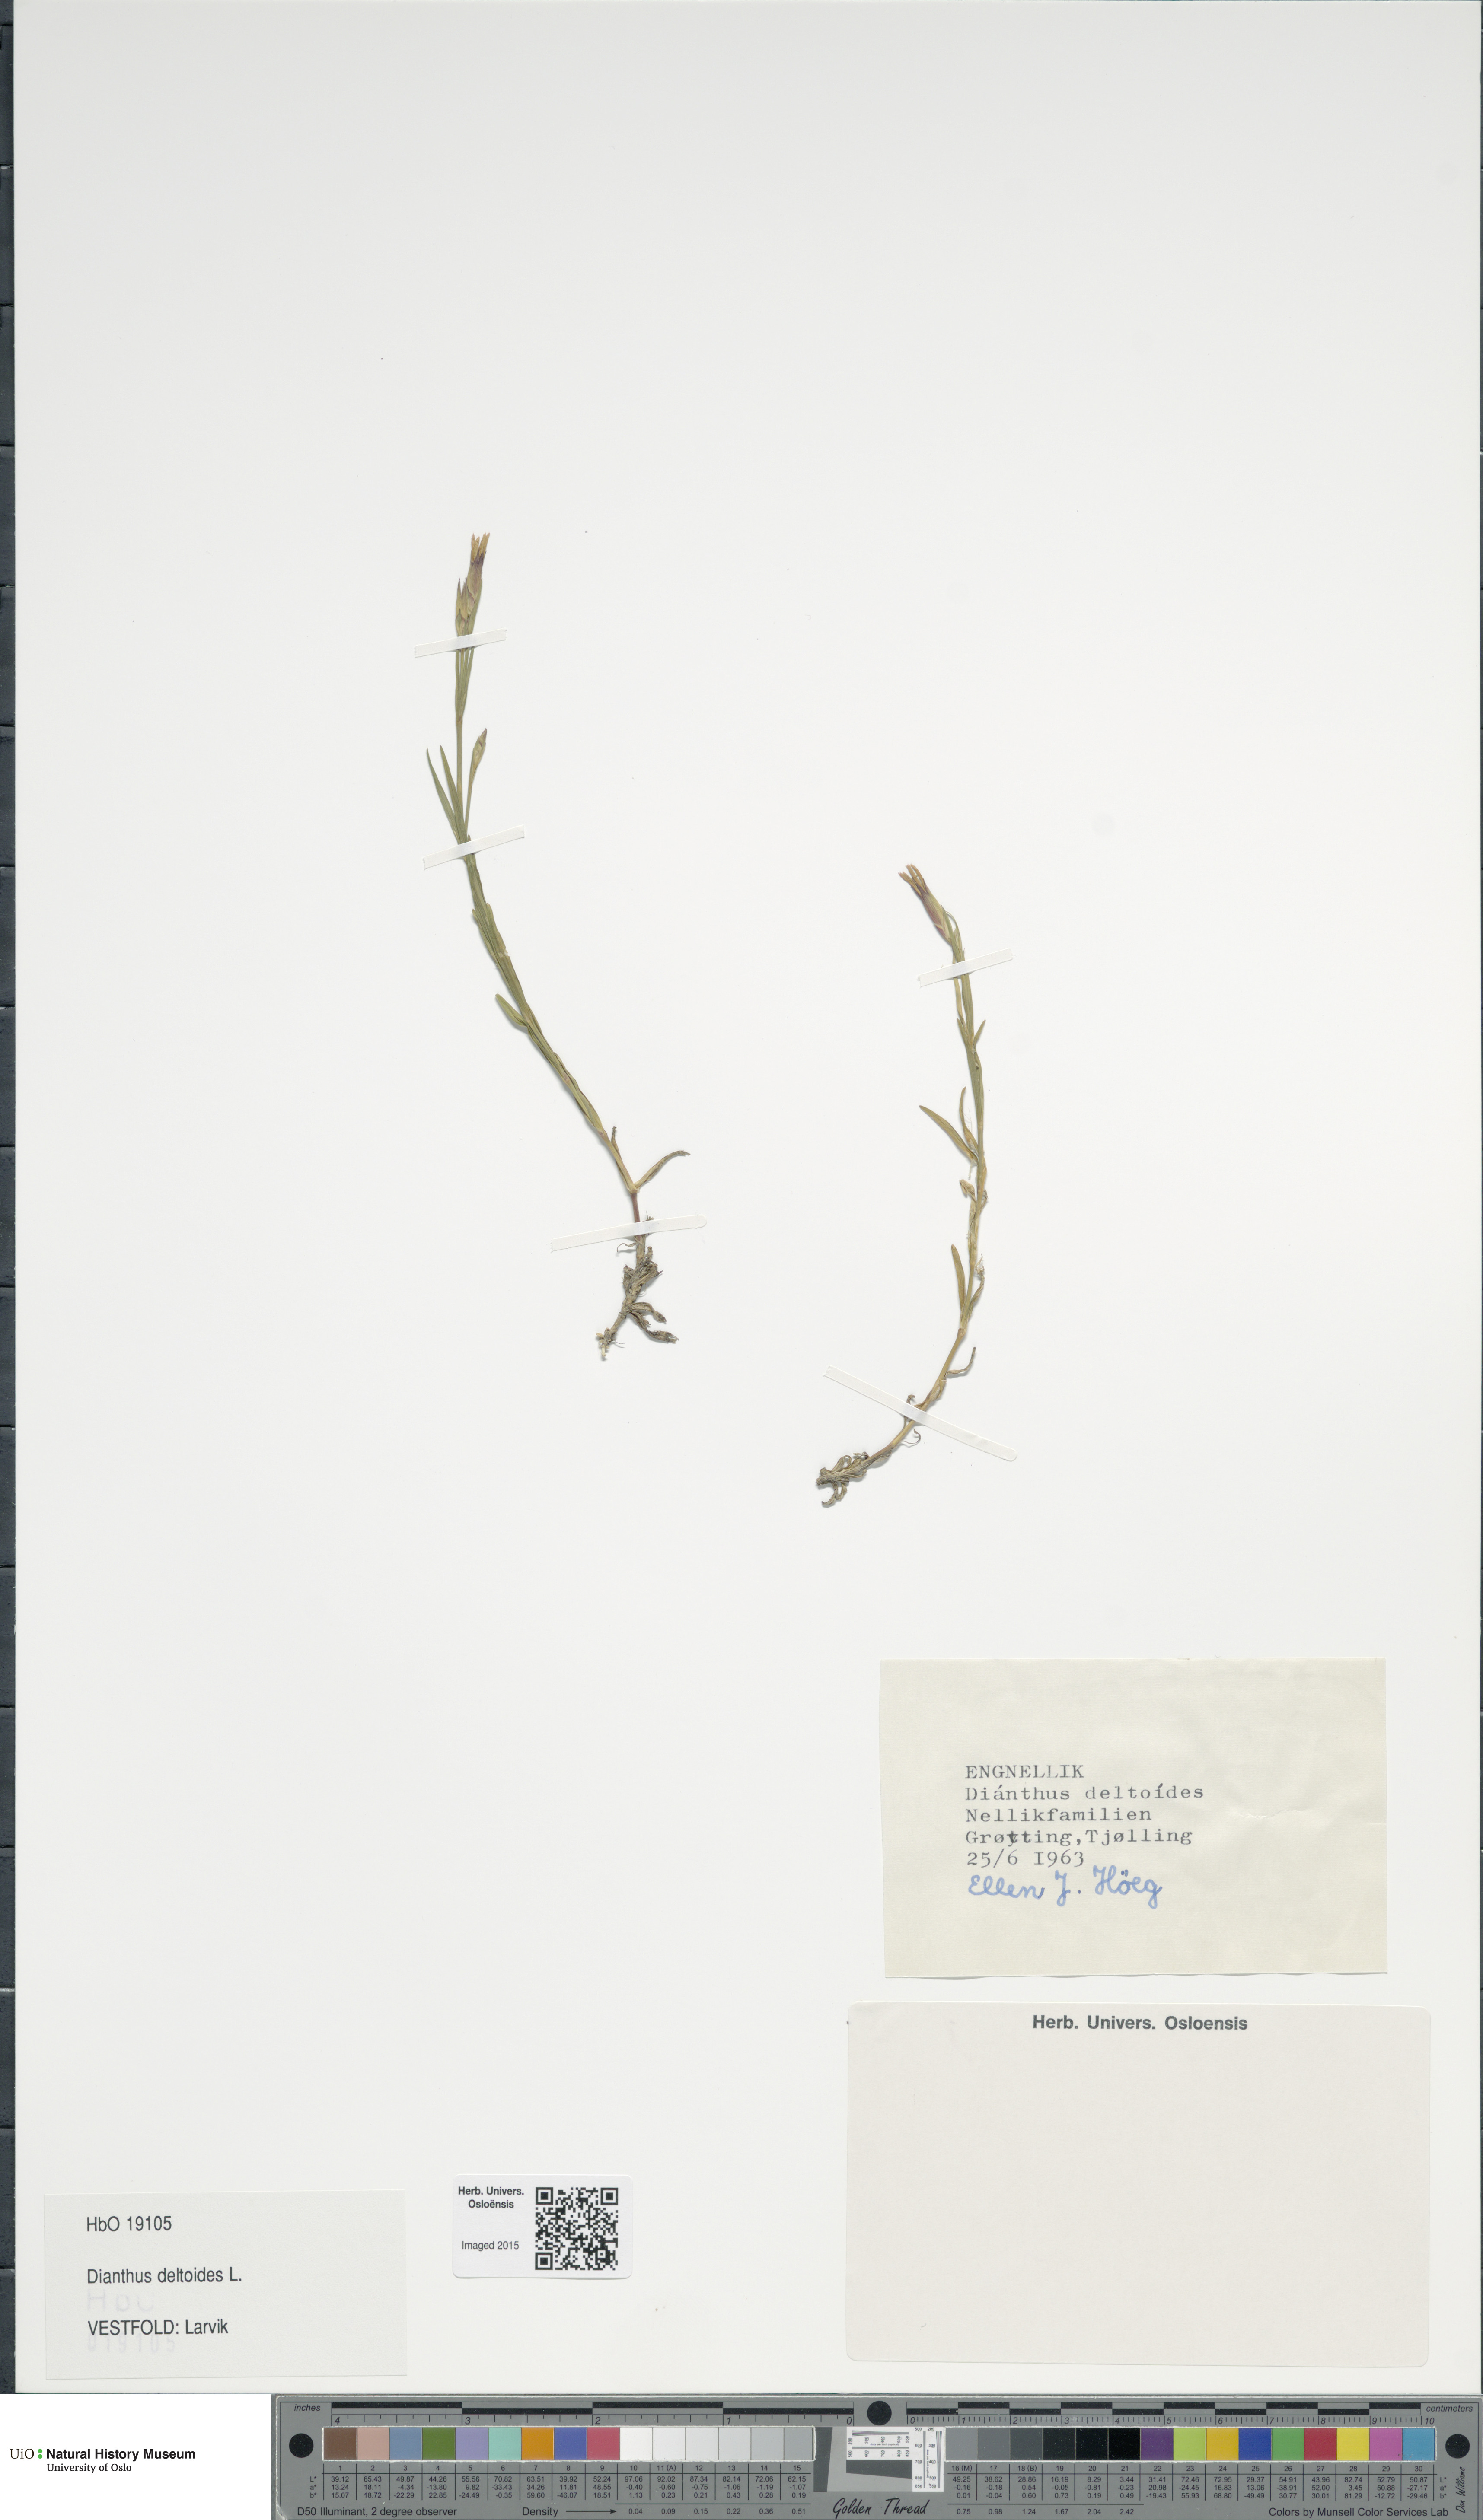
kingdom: Plantae
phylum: Tracheophyta
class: Magnoliopsida
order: Caryophyllales
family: Caryophyllaceae
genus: Dianthus
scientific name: Dianthus deltoides
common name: Maiden pink
